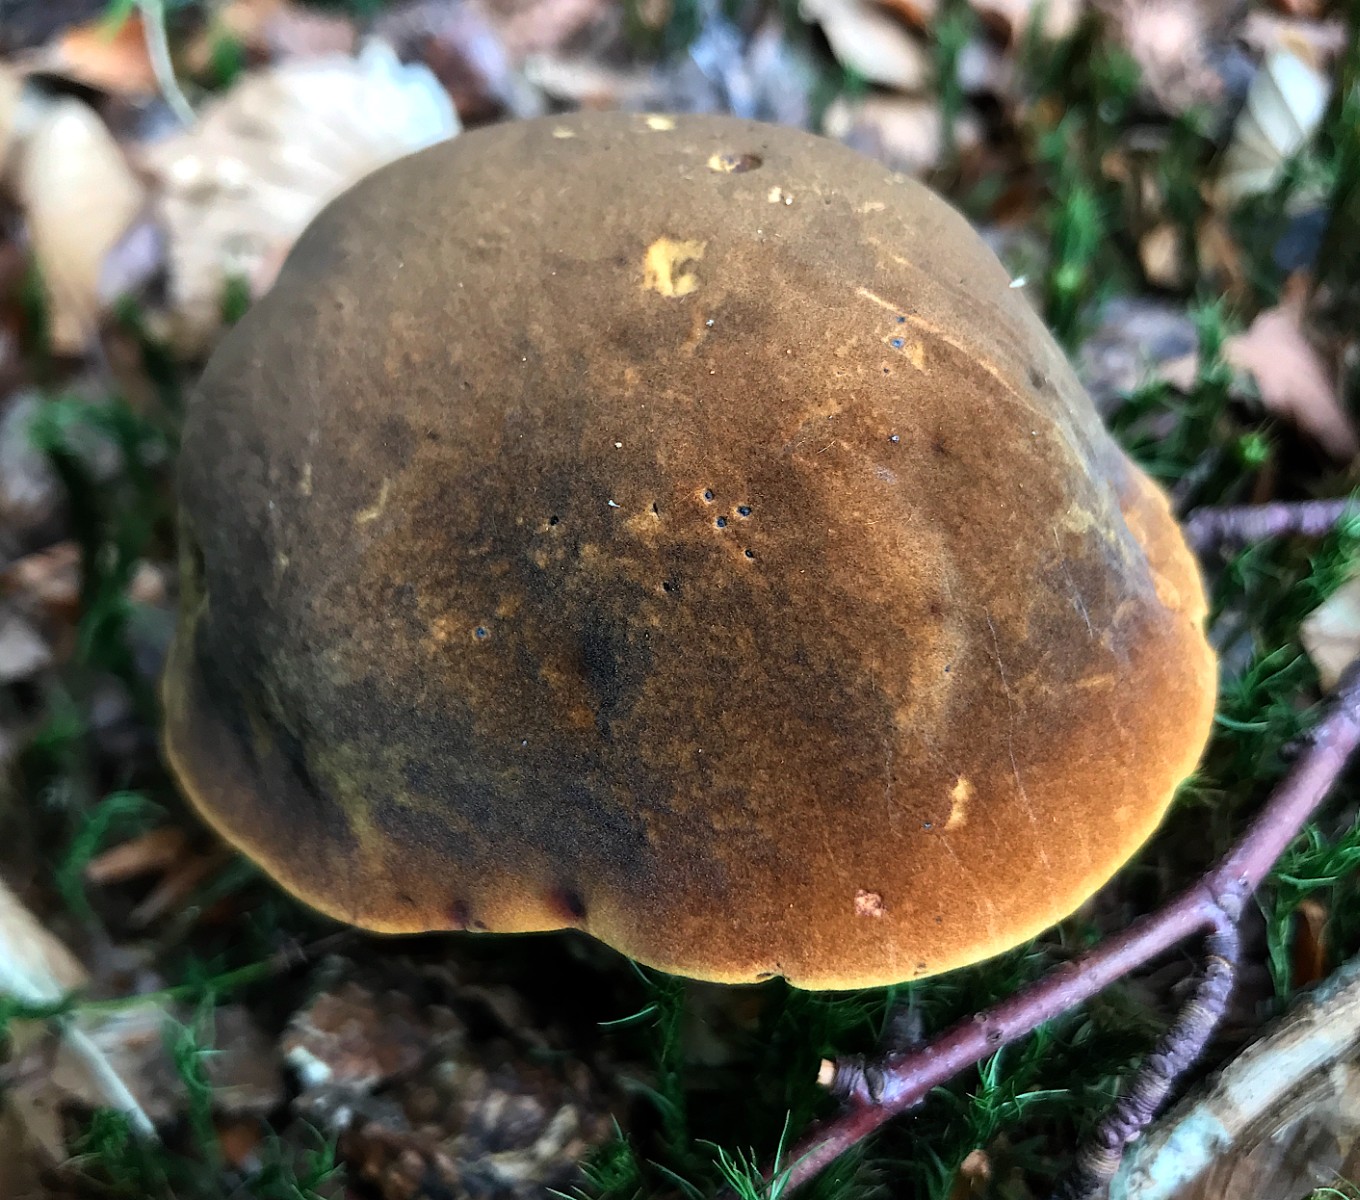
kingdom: Fungi
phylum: Basidiomycota
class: Agaricomycetes
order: Boletales
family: Boletaceae
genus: Neoboletus
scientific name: Neoboletus erythropus
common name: punktstokket indigorørhat
